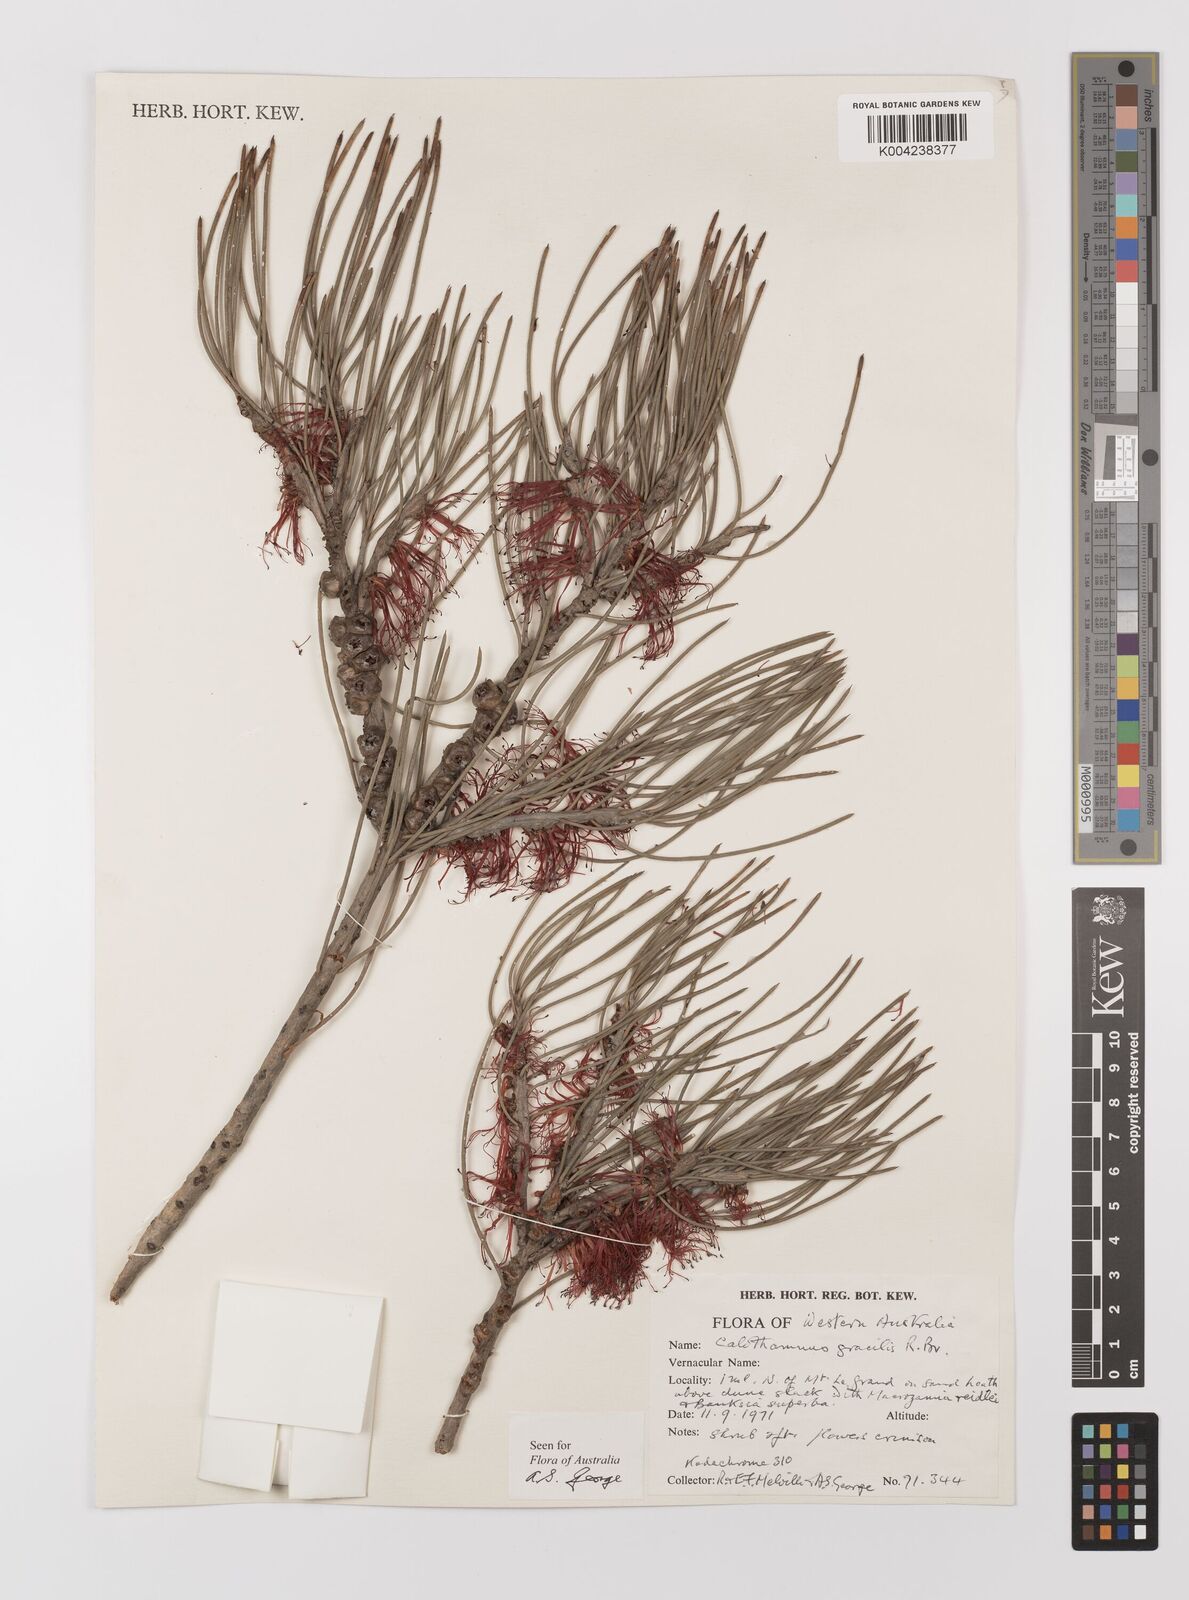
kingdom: Plantae
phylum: Tracheophyta
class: Magnoliopsida
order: Myrtales
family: Myrtaceae
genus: Melaleuca
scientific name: Melaleuca gracilis
